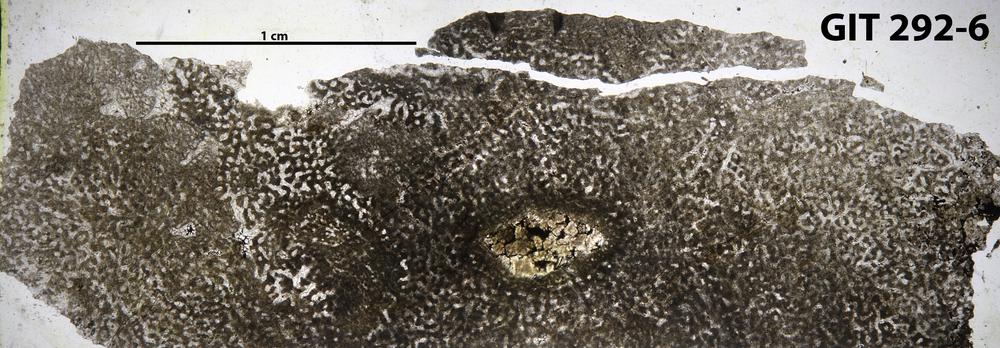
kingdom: Animalia
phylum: Porifera
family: Stromatoporellidae
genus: Simplexodictyon
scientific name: Simplexodictyon
